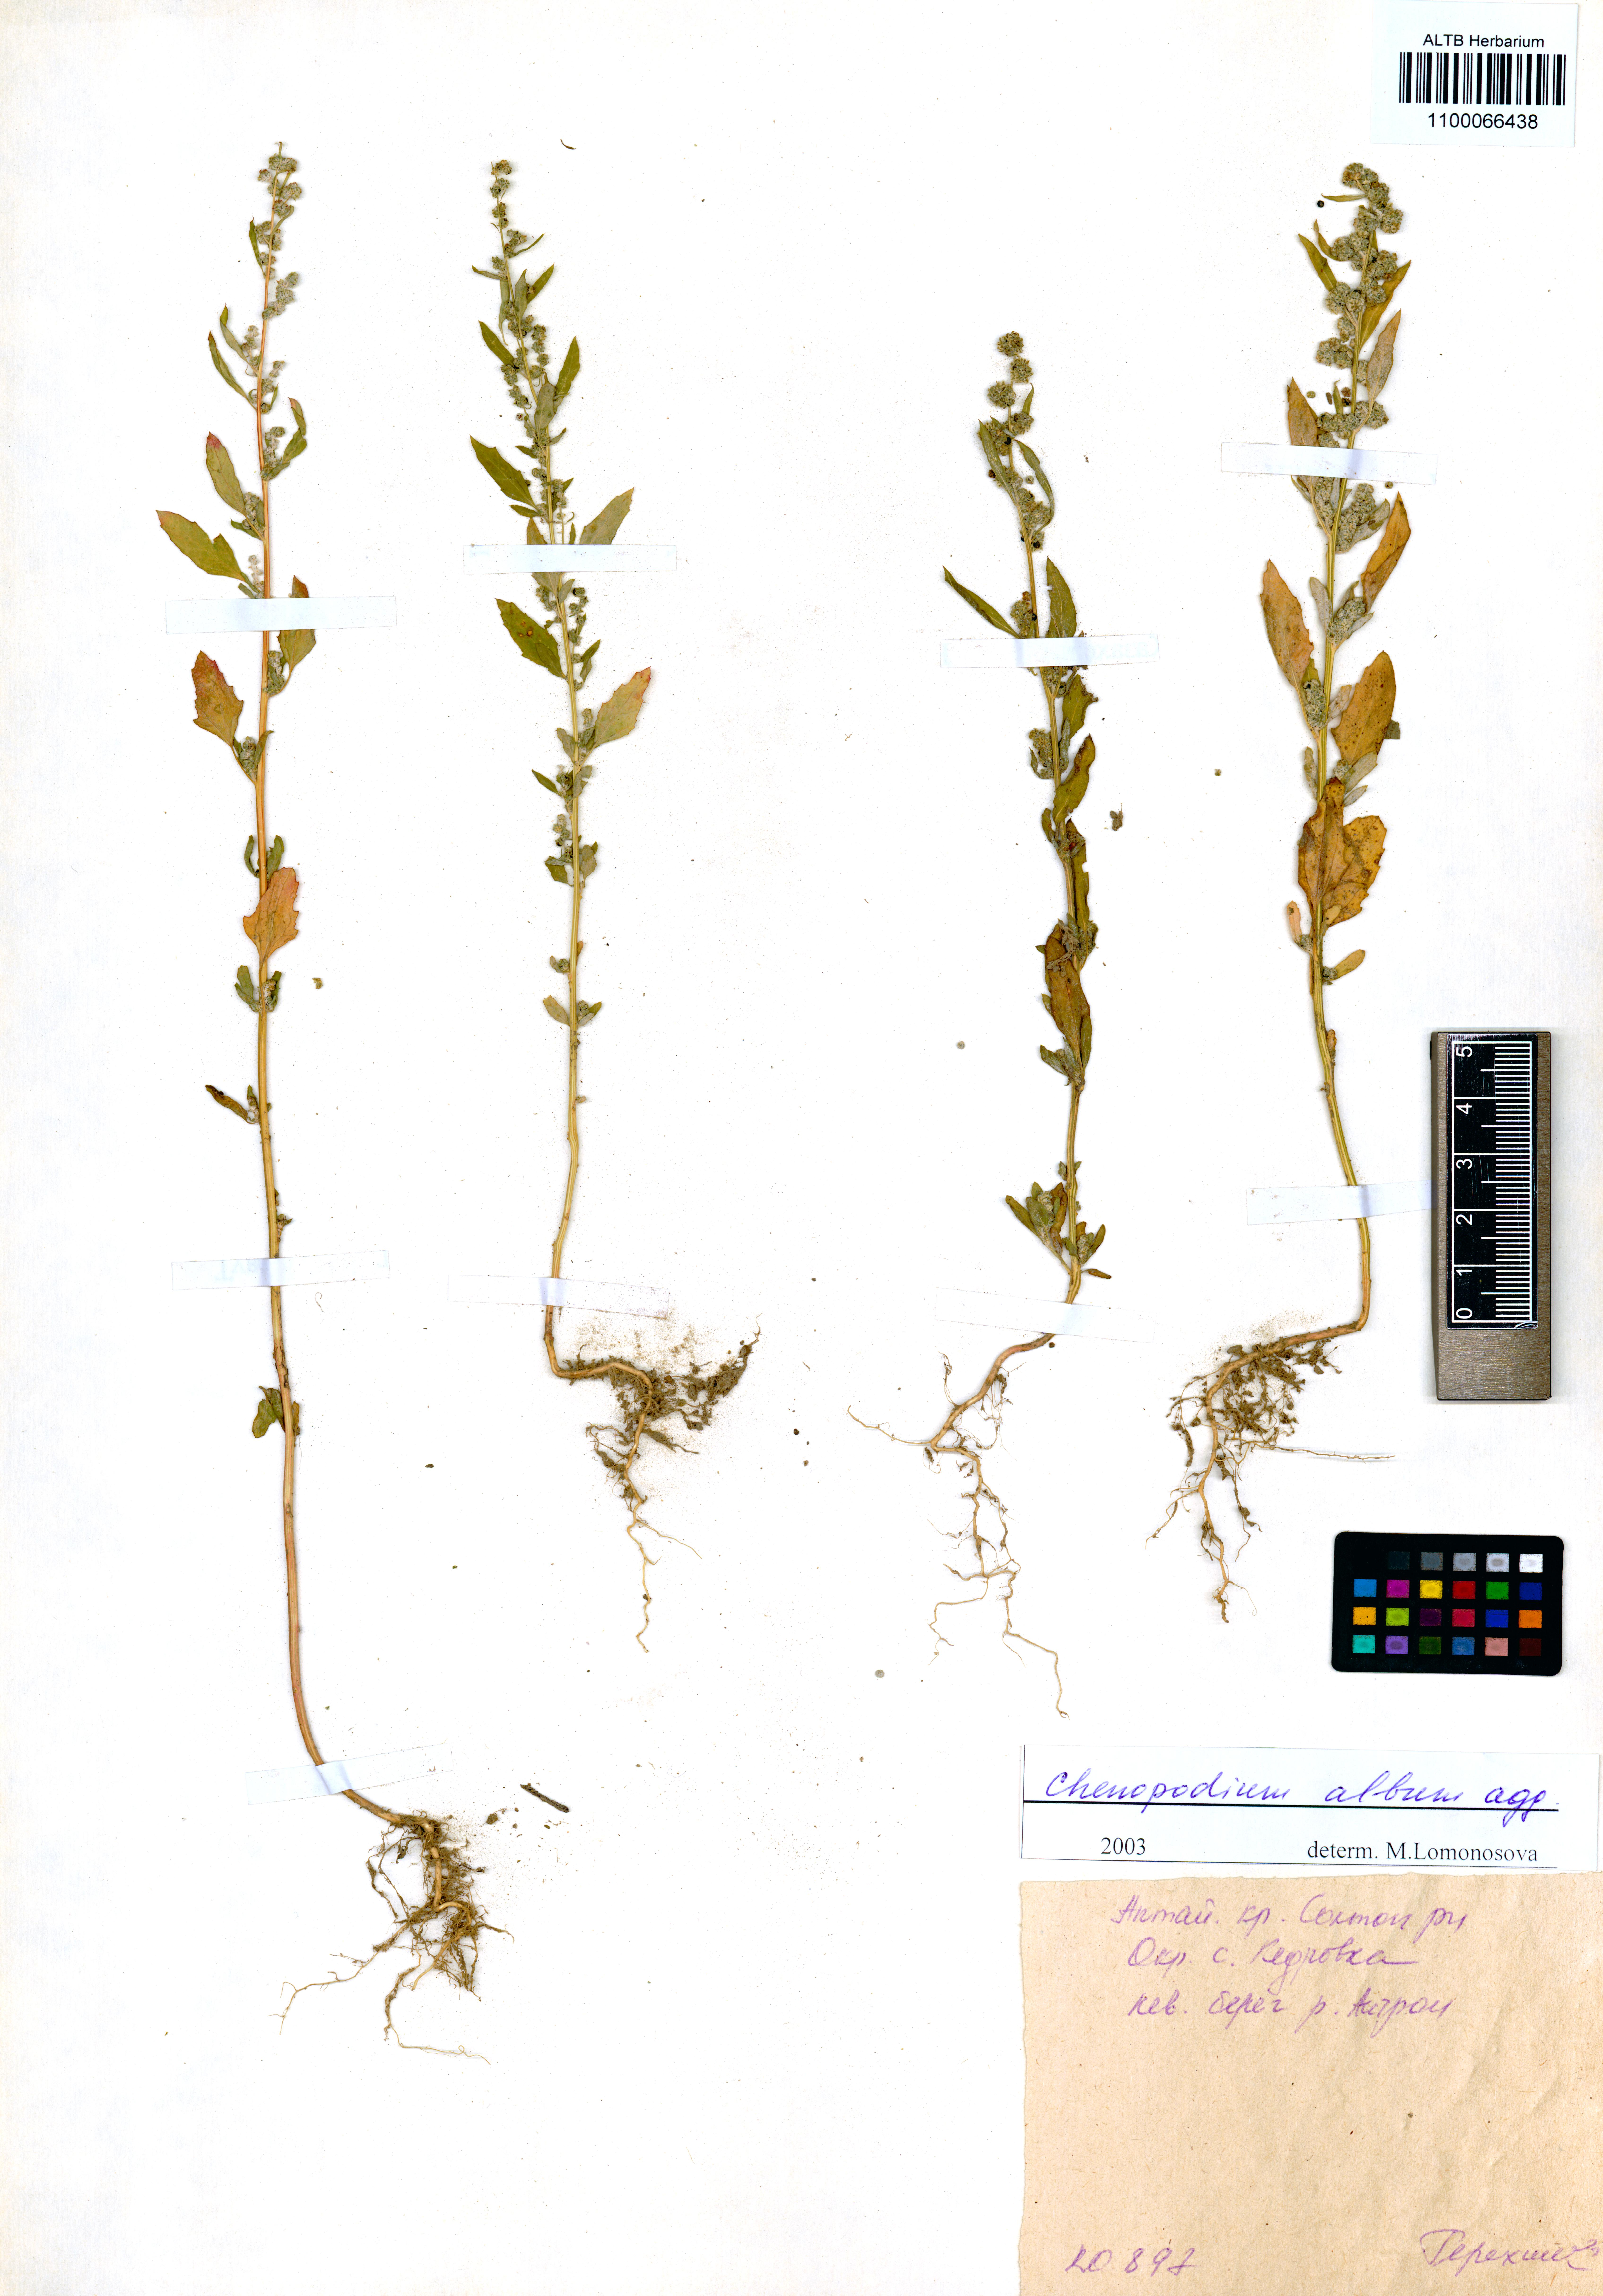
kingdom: Plantae
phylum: Tracheophyta
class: Magnoliopsida
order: Caryophyllales
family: Amaranthaceae
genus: Chenopodium
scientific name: Chenopodium album
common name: Fat-hen
